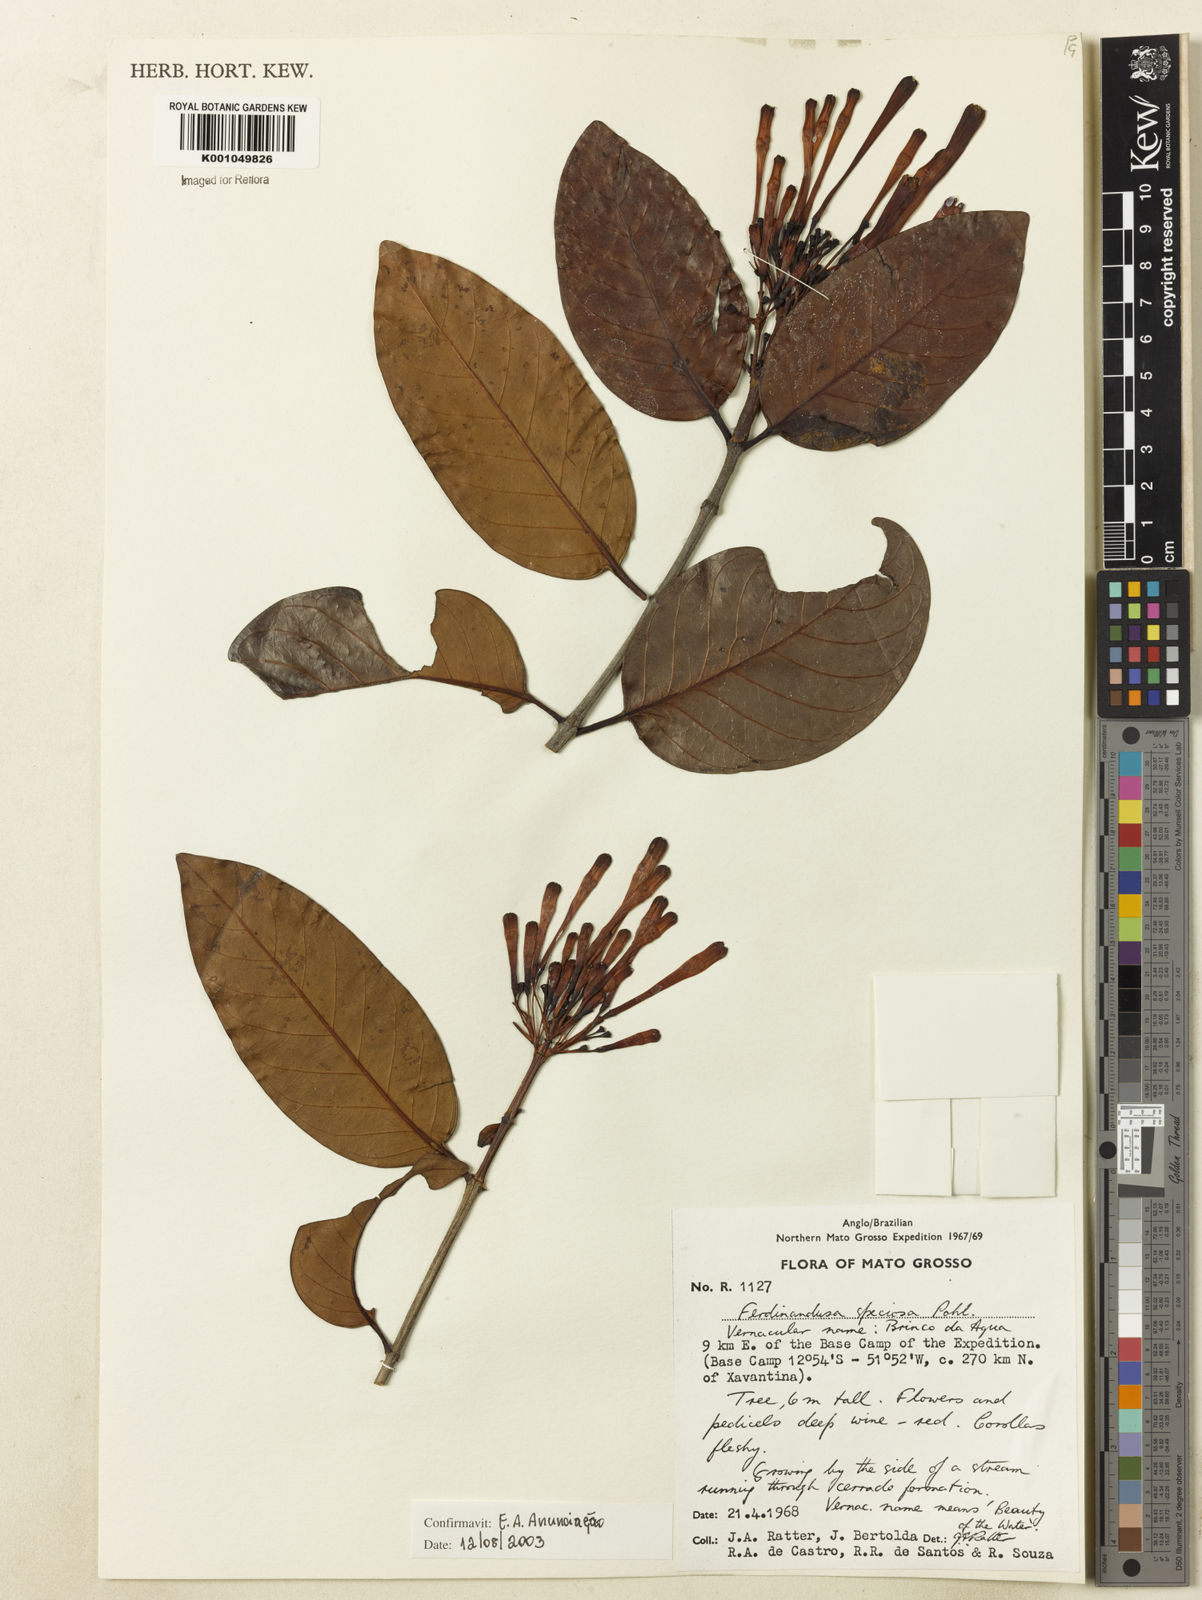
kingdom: Plantae
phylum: Tracheophyta
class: Magnoliopsida
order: Gentianales
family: Rubiaceae
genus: Ferdinandusa
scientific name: Ferdinandusa speciosa
